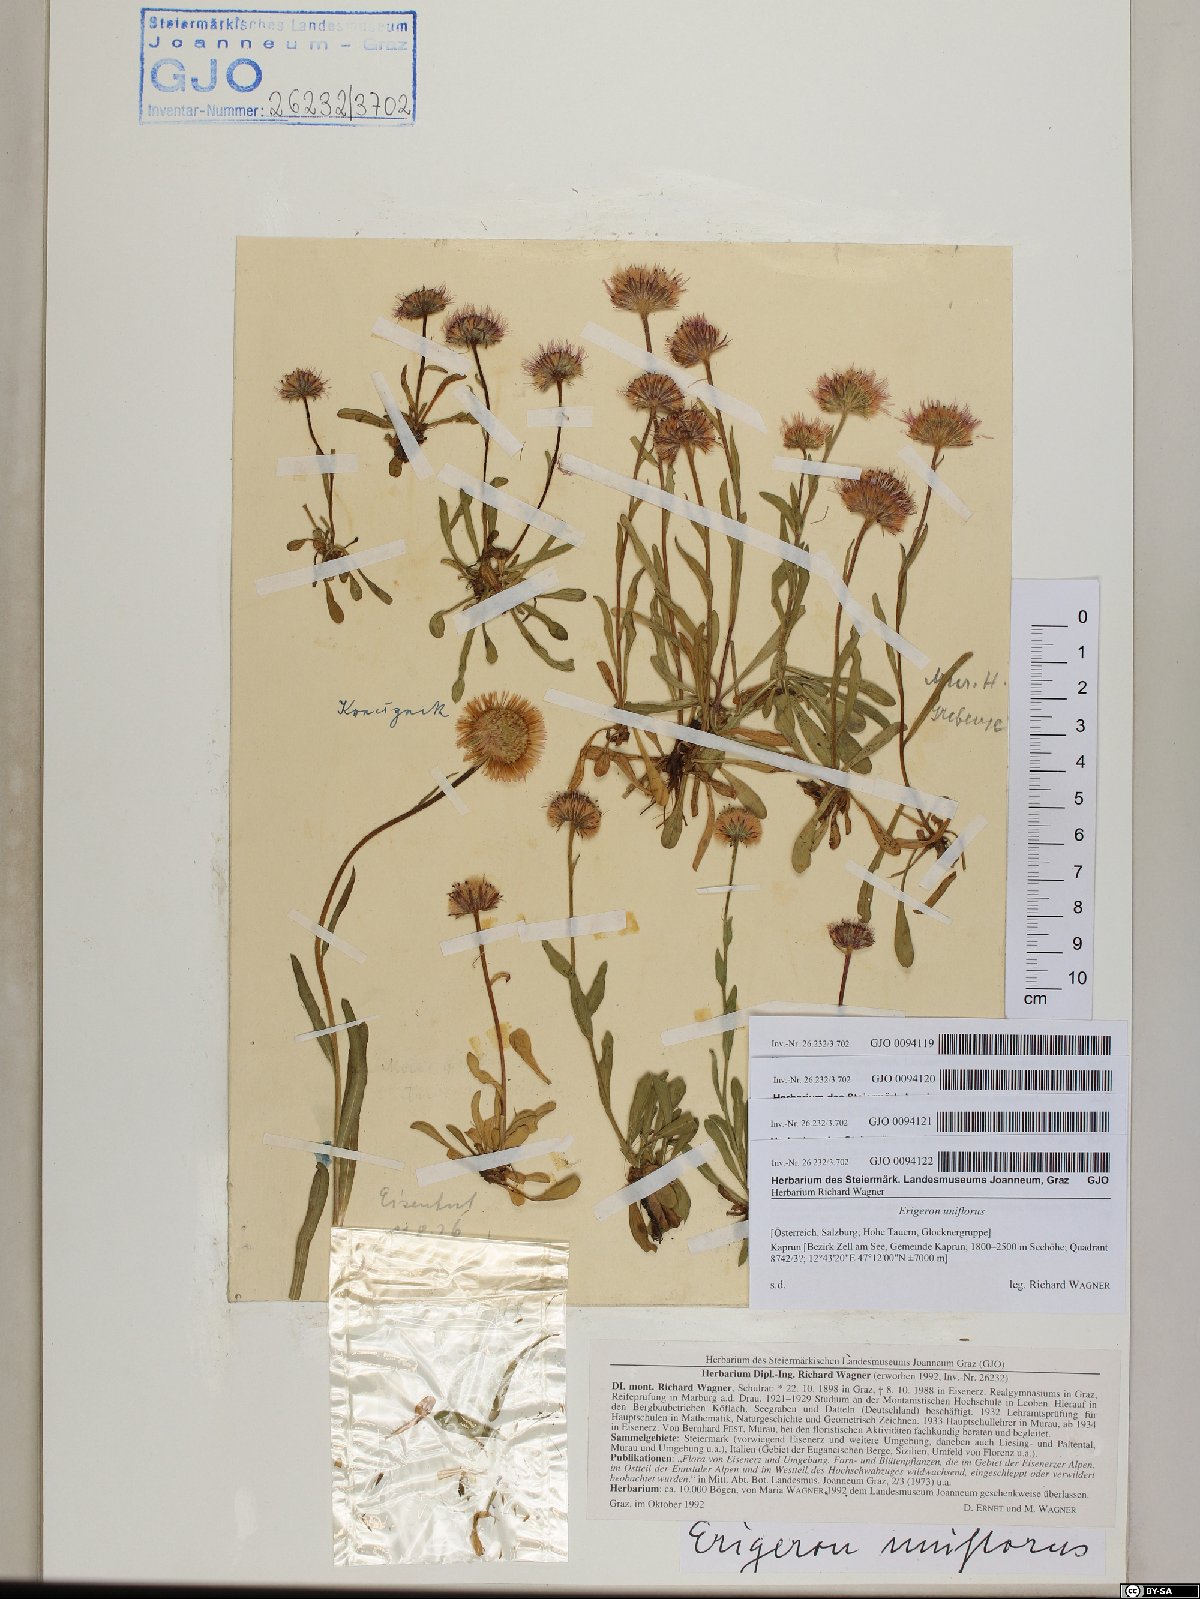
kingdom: Plantae
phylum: Tracheophyta
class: Magnoliopsida
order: Asterales
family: Asteraceae
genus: Erigeron
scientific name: Erigeron uniflorus
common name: Northern daisy
